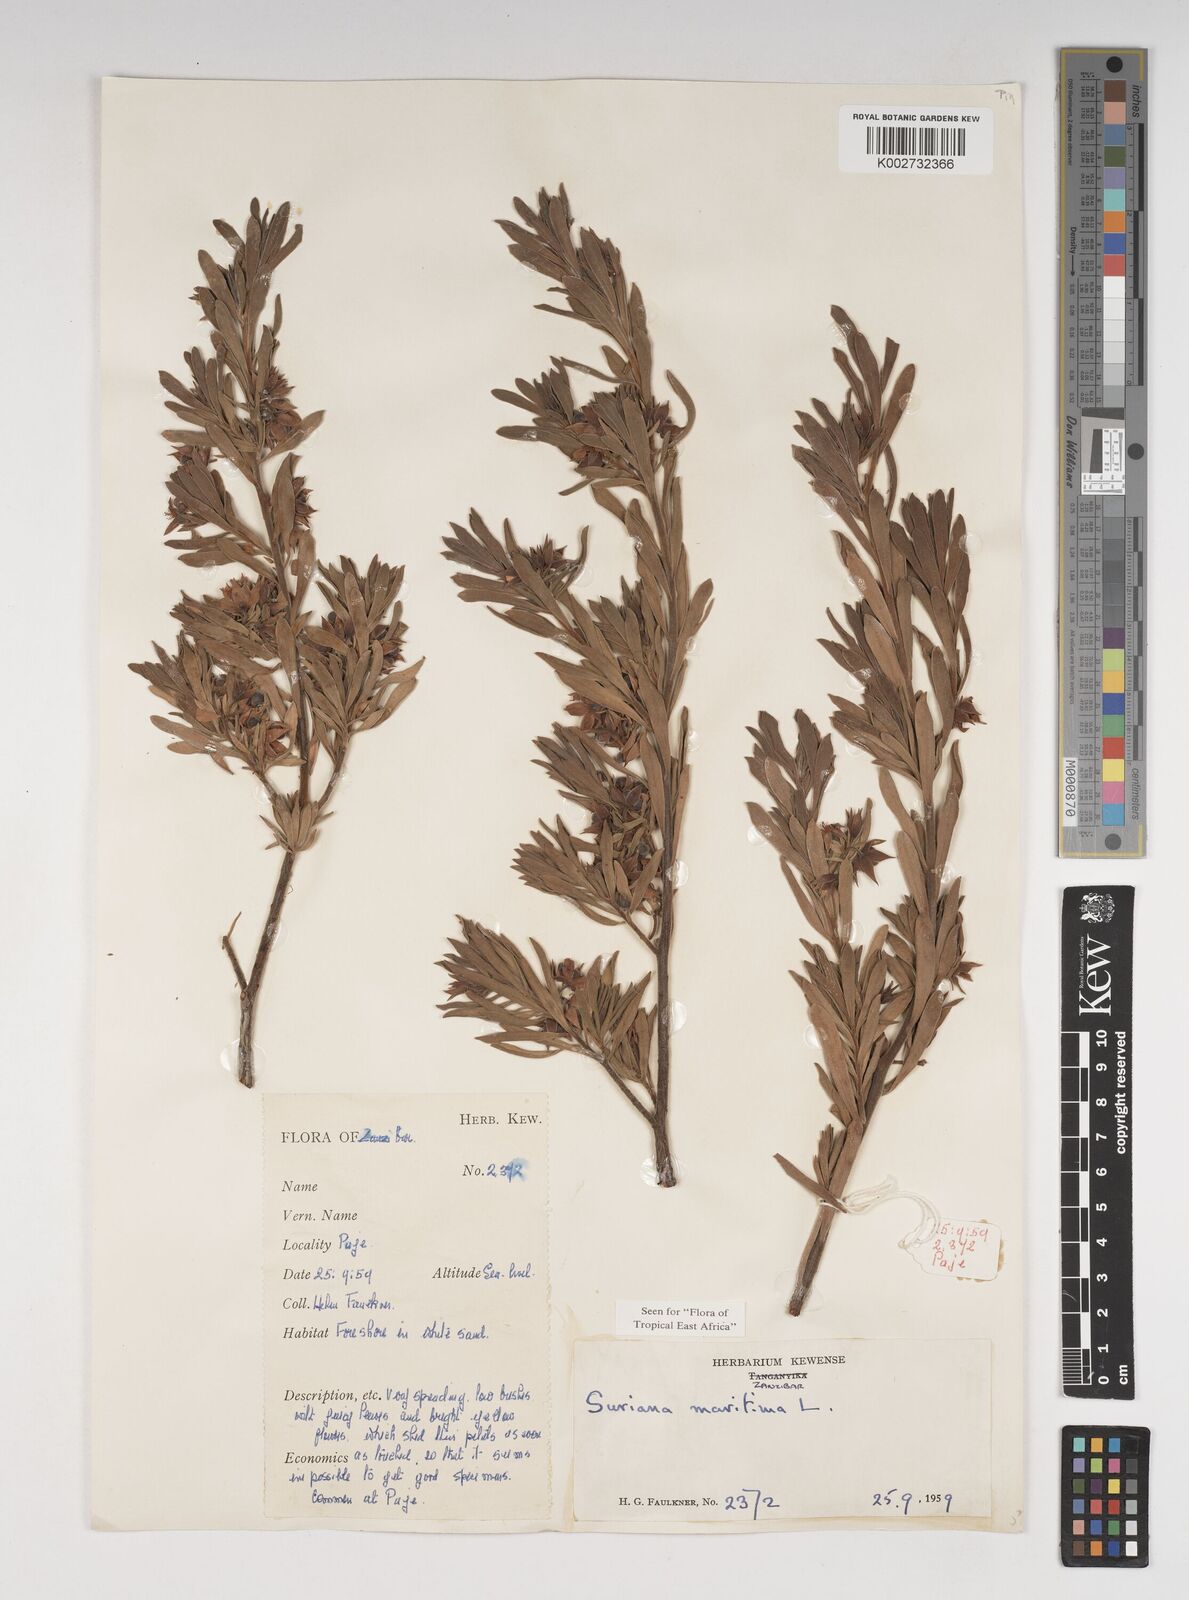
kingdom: Plantae
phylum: Tracheophyta
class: Magnoliopsida
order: Fabales
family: Surianaceae
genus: Suriana
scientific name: Suriana maritima
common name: Bay-cedar
